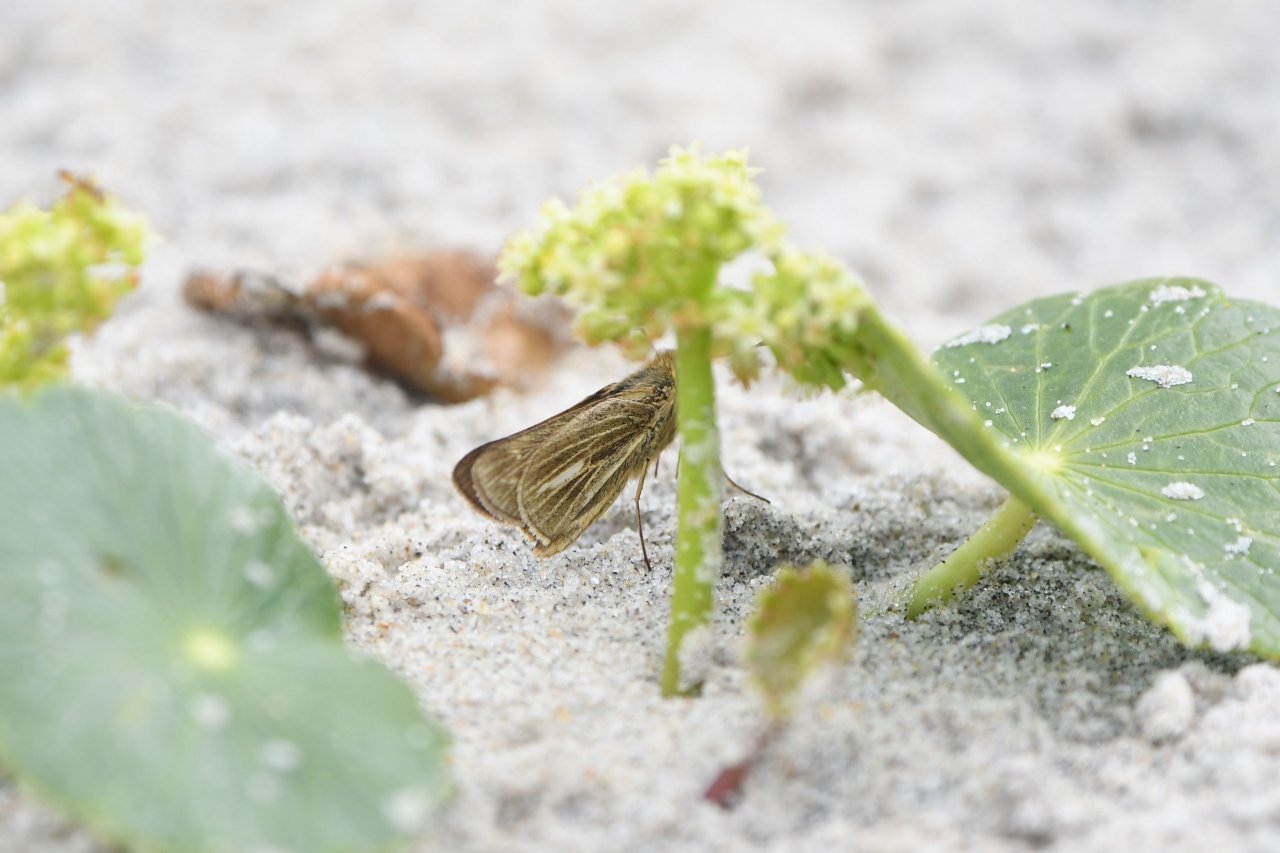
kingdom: Animalia
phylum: Arthropoda
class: Insecta
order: Lepidoptera
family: Hesperiidae
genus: Panoquina
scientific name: Panoquina panoquin
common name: Salt Marsh Skipper
